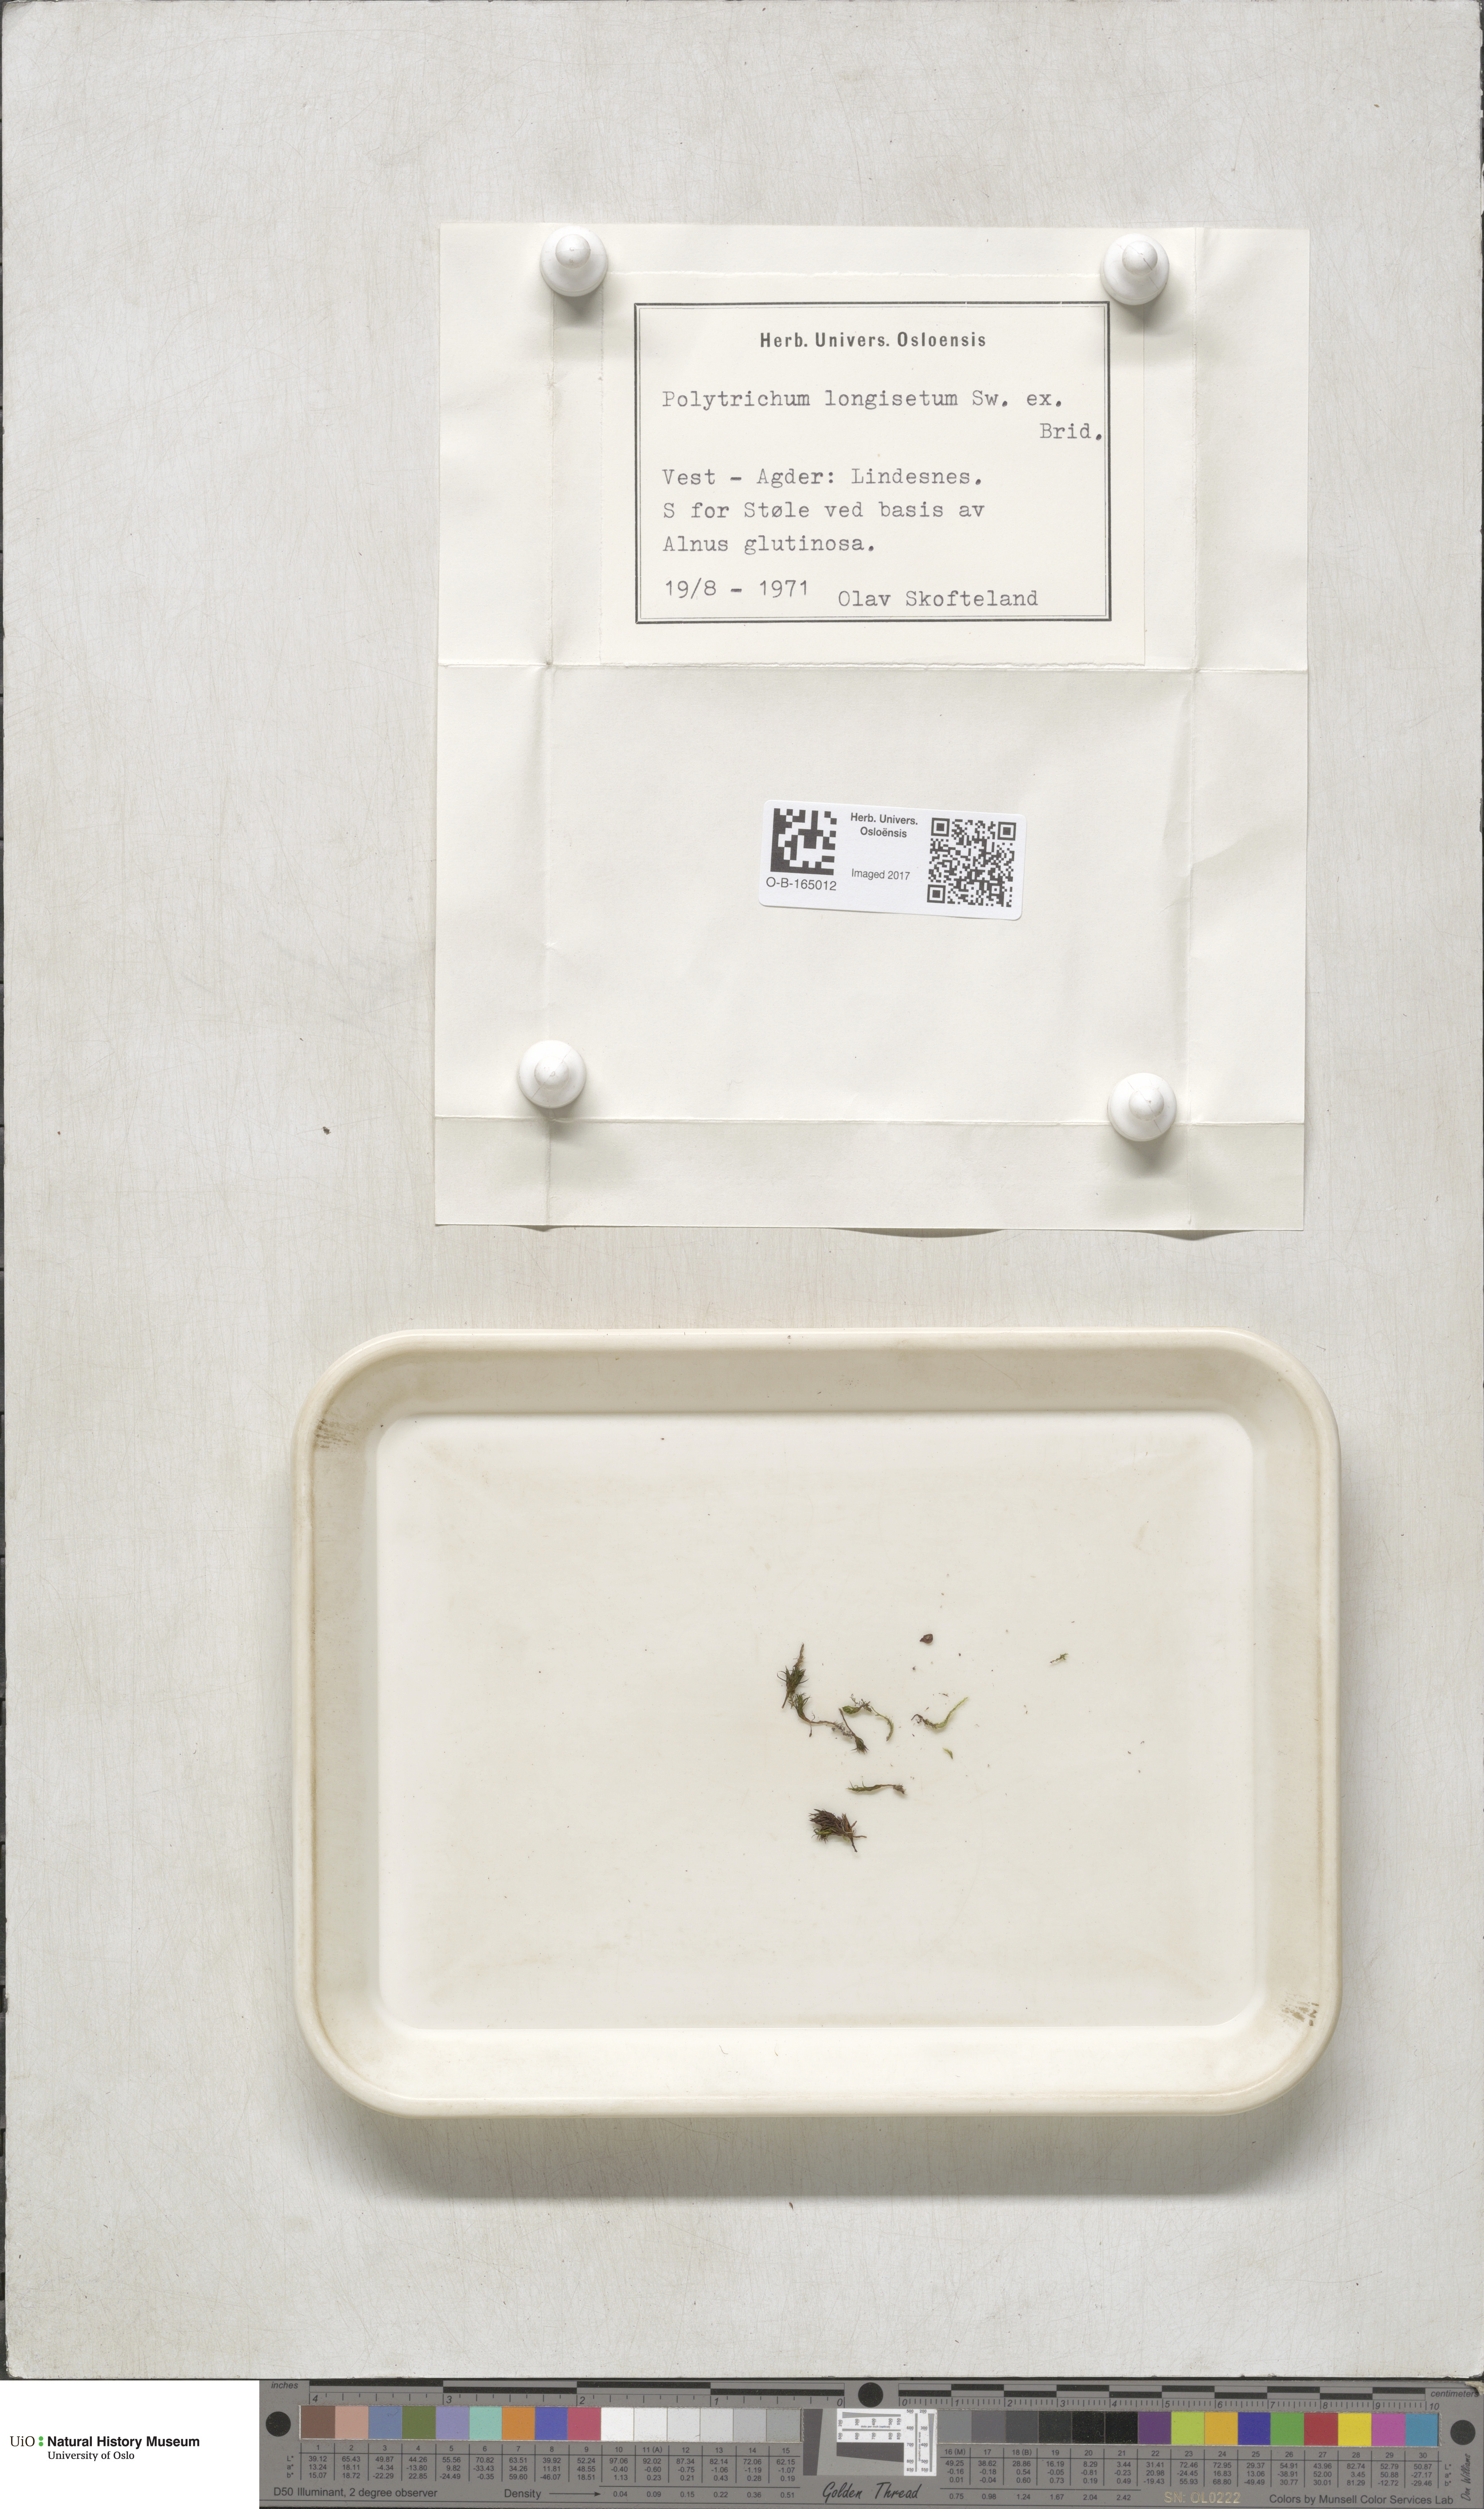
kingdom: Plantae
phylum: Bryophyta
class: Polytrichopsida
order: Polytrichales
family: Polytrichaceae
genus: Polytrichum
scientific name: Polytrichum longisetum
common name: Long-stalked haircap moss
